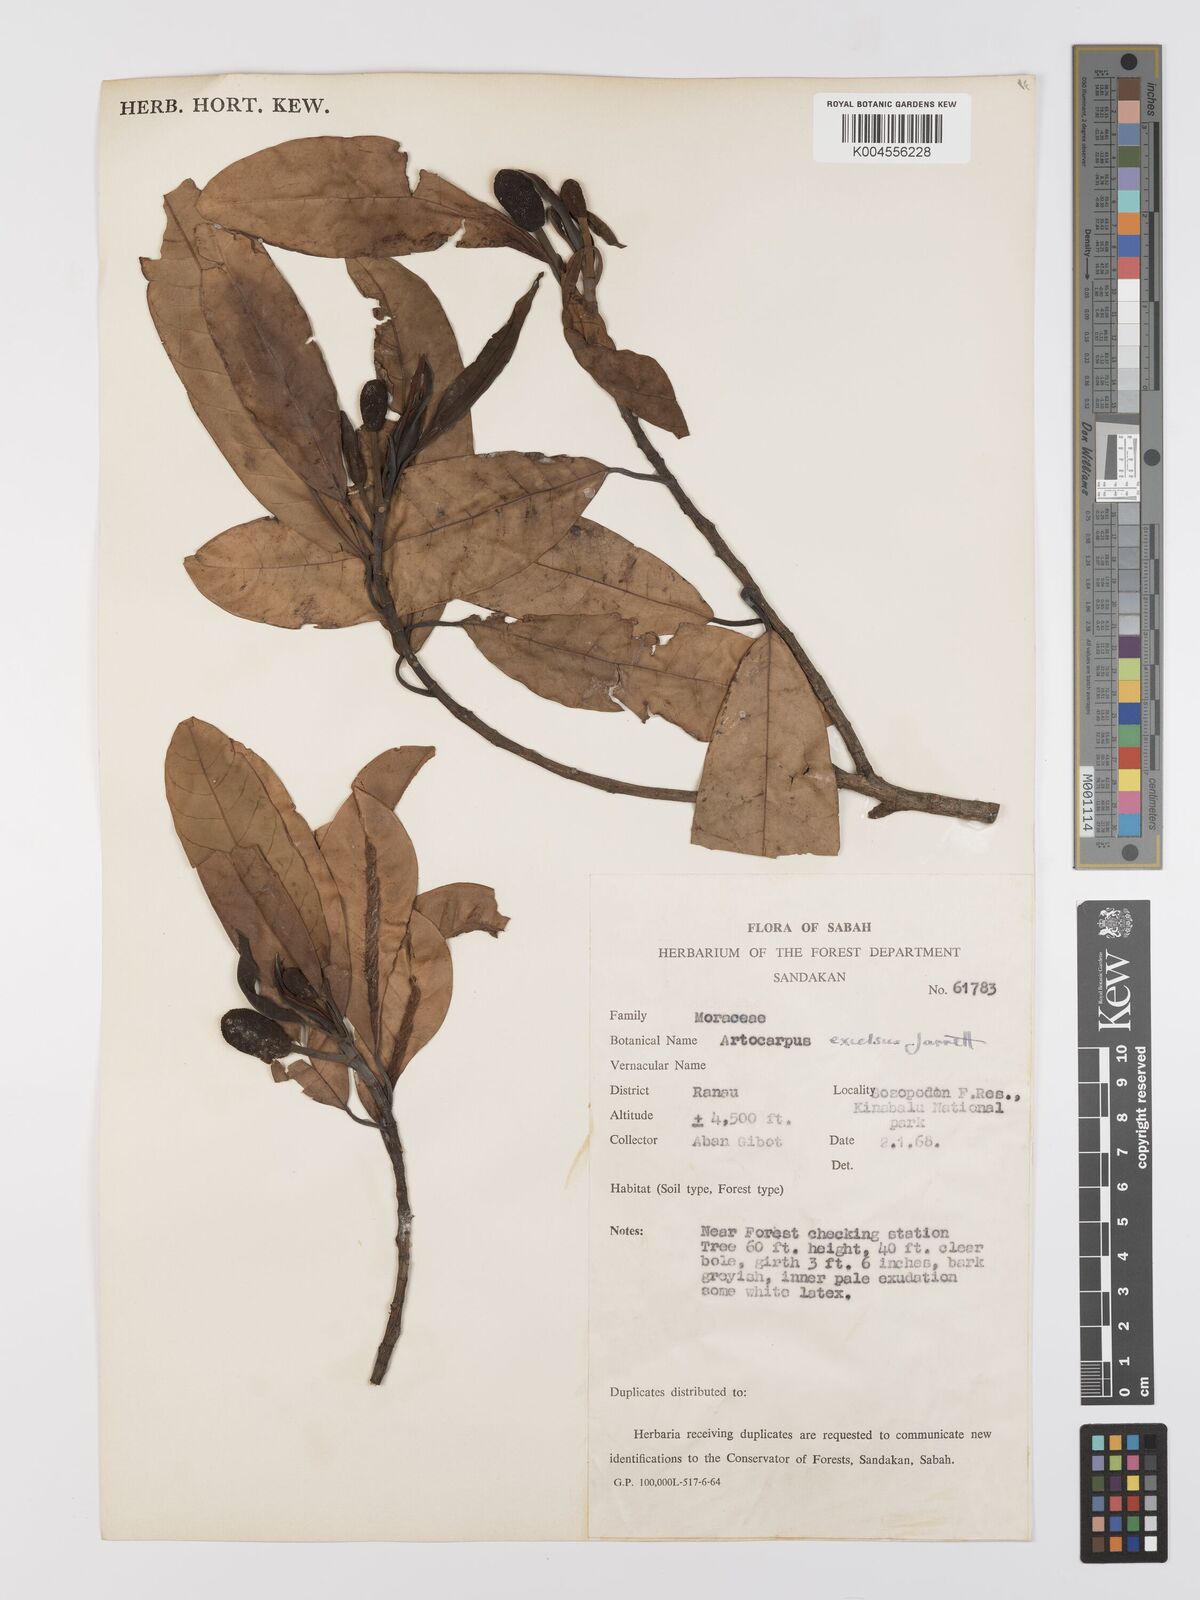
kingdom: Plantae
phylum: Tracheophyta
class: Magnoliopsida
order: Rosales
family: Moraceae
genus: Artocarpus
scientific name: Artocarpus excelsus
